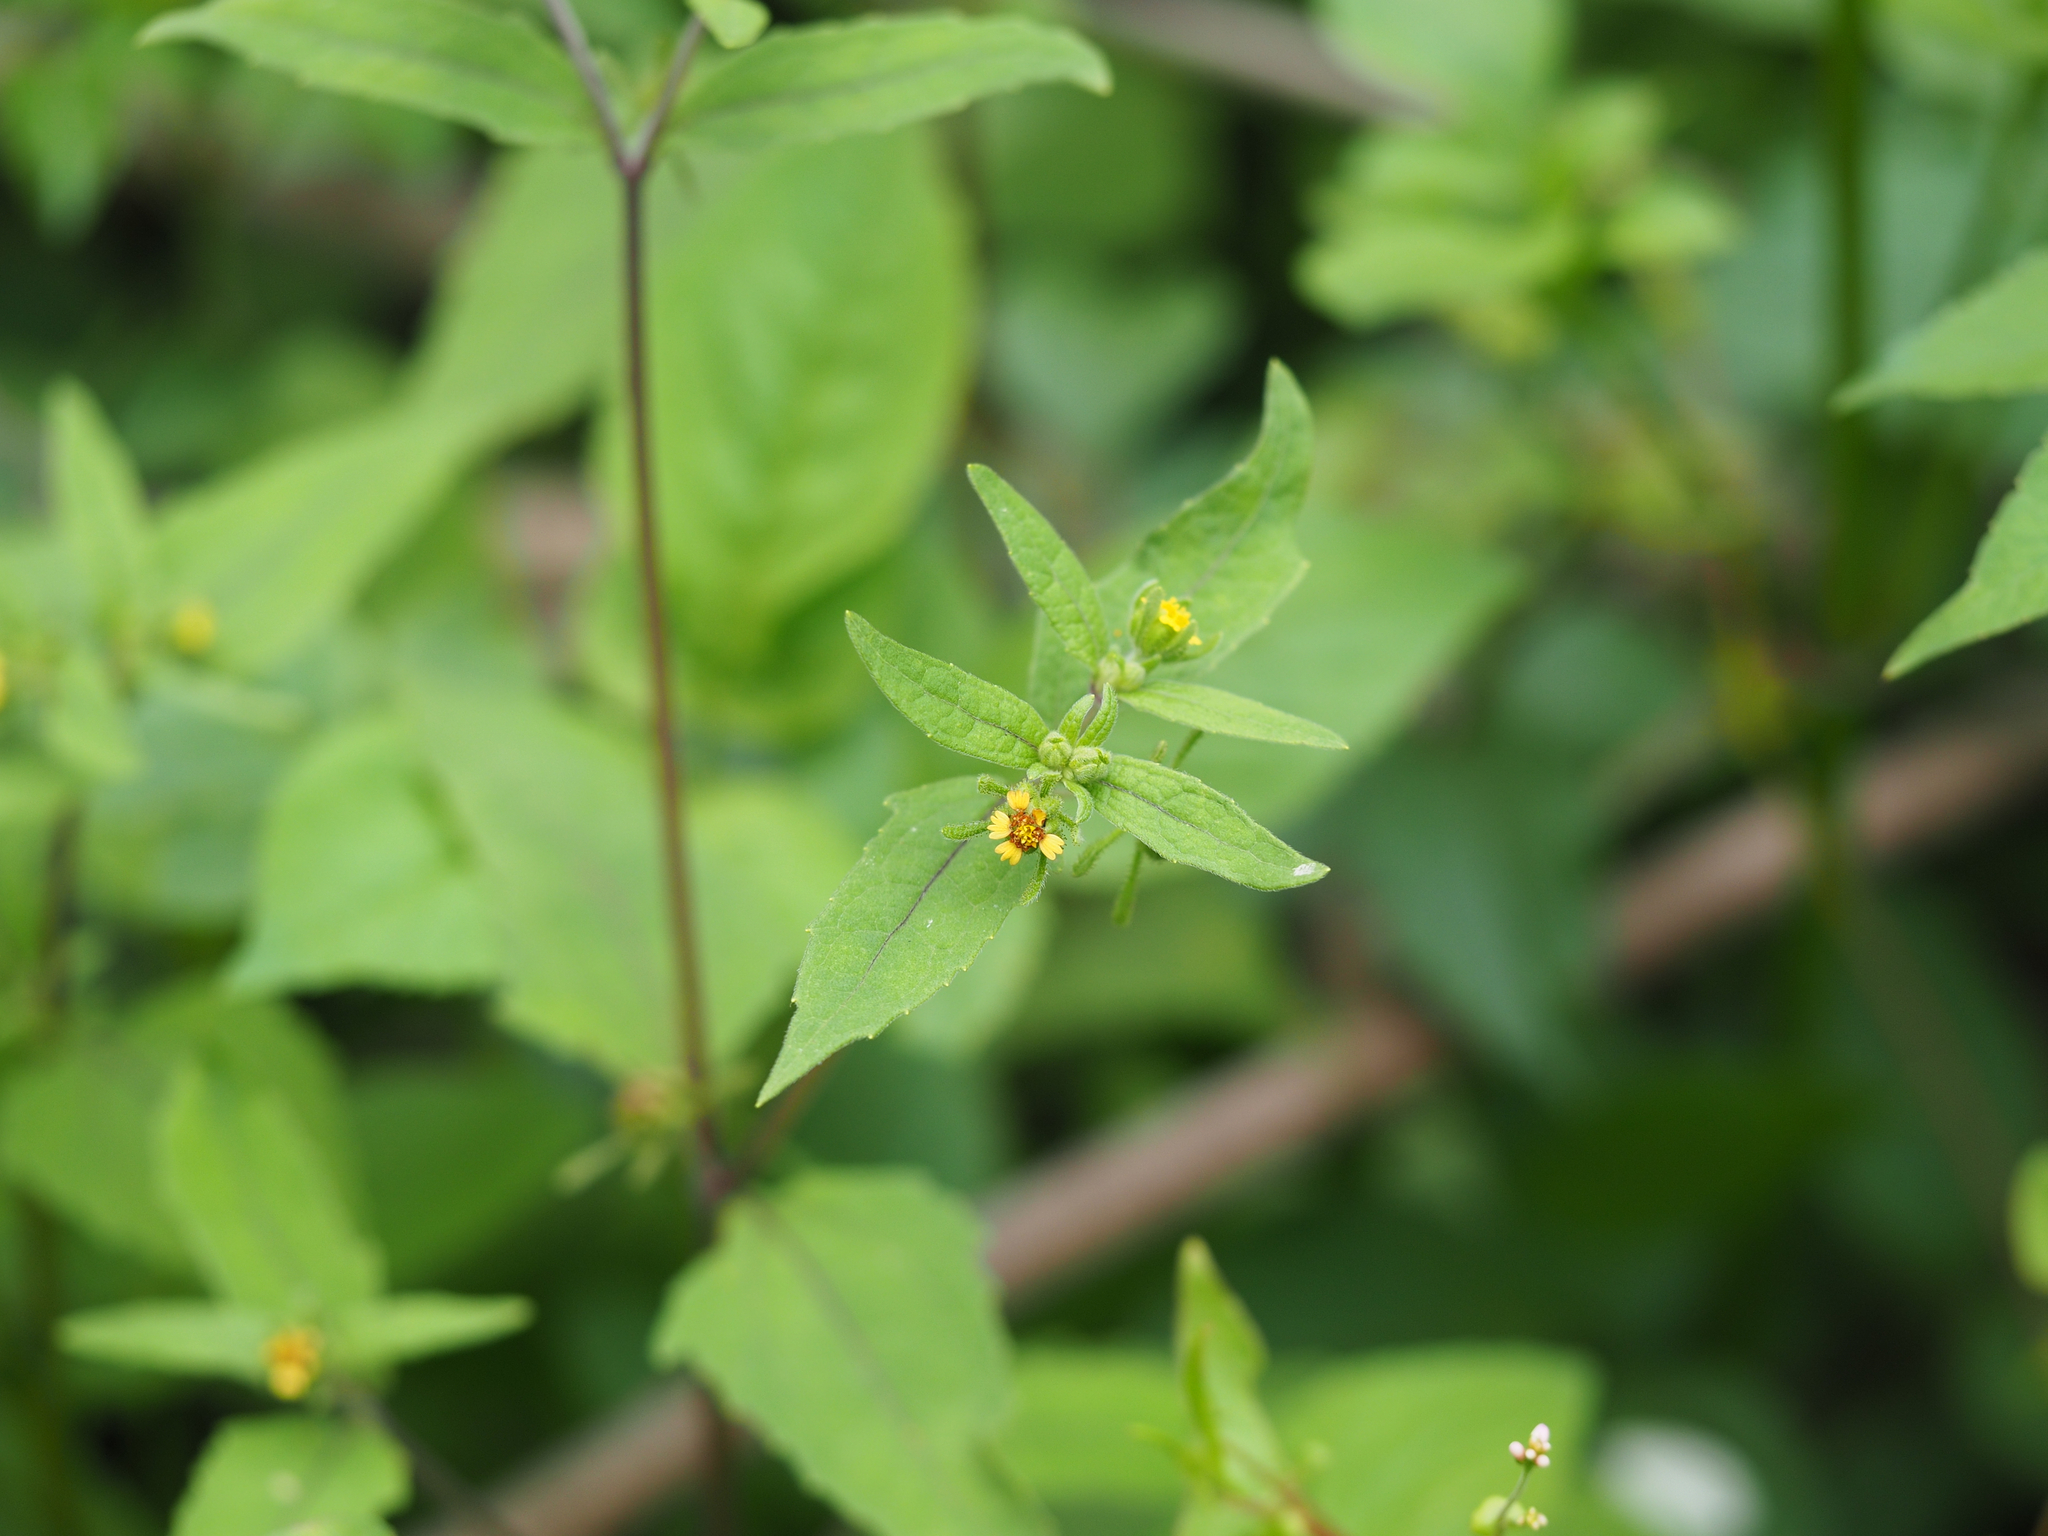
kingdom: Plantae
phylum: Tracheophyta
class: Magnoliopsida
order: Asterales
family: Asteraceae
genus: Sigesbeckia
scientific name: Sigesbeckia orientalis
